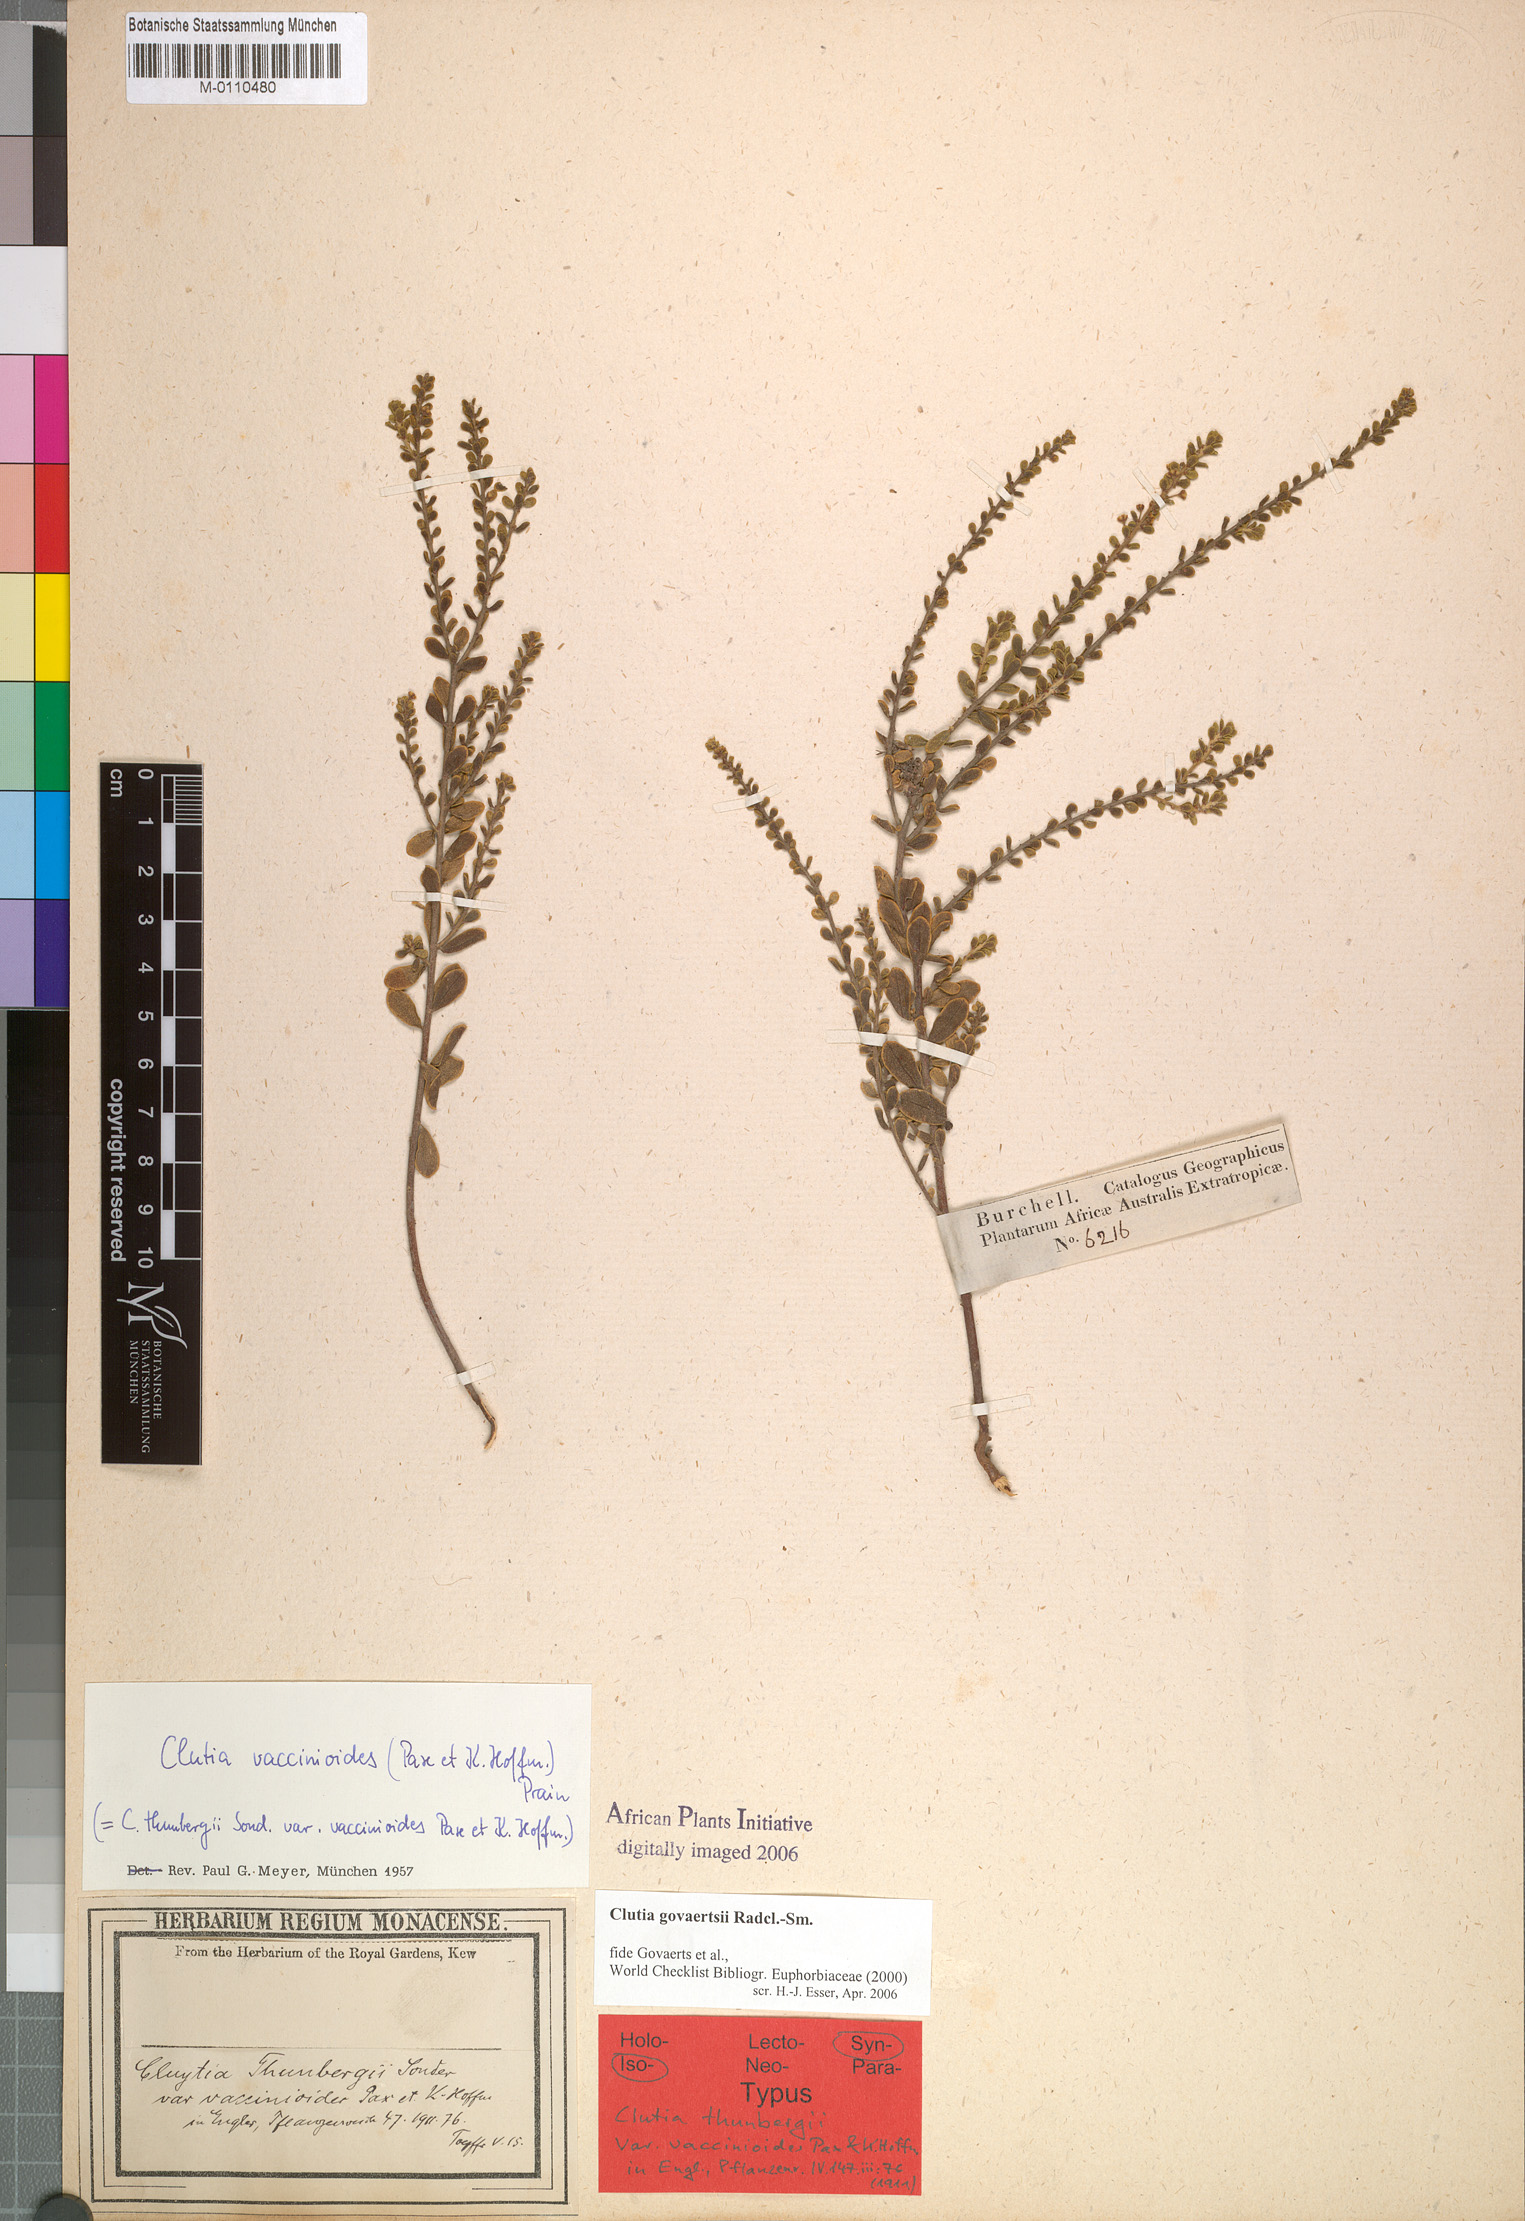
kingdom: Plantae
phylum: Tracheophyta
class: Magnoliopsida
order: Malpighiales
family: Peraceae
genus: Clutia
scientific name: Clutia govaertsii
